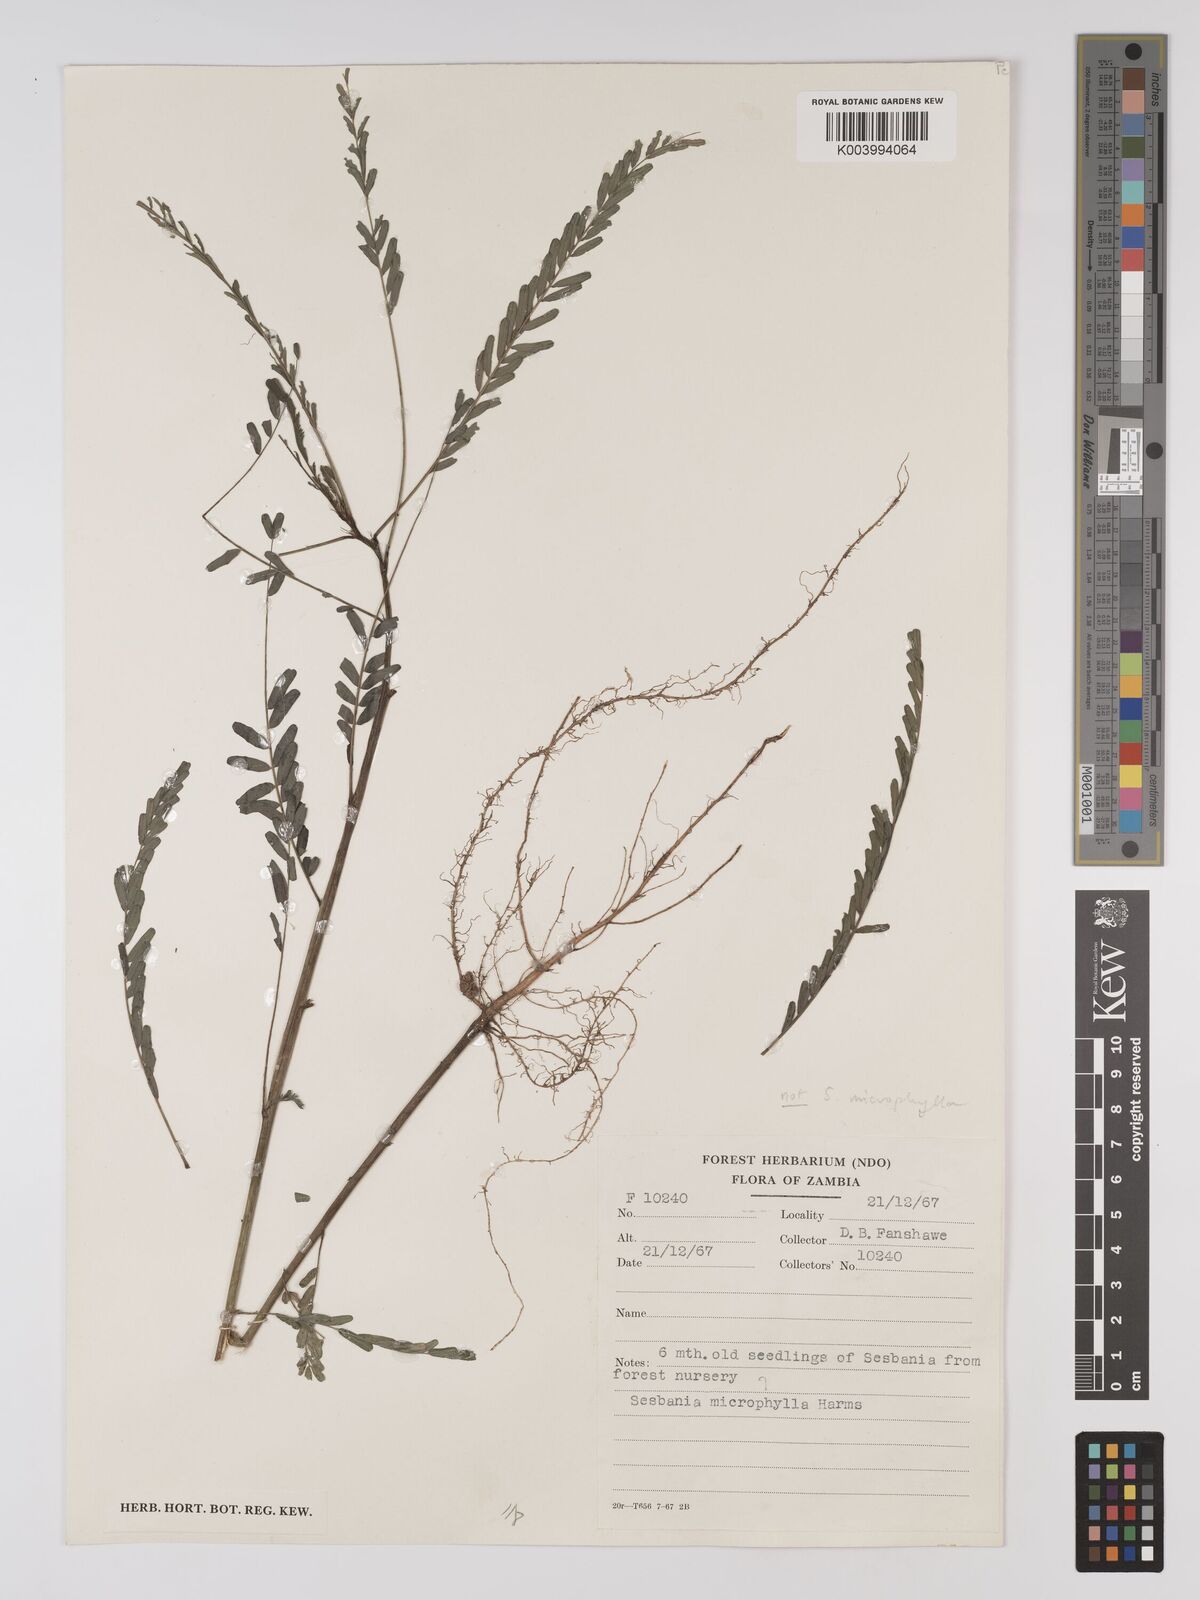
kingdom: Plantae
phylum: Tracheophyta
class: Magnoliopsida
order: Fabales
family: Fabaceae
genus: Sesbania
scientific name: Sesbania microphylla
